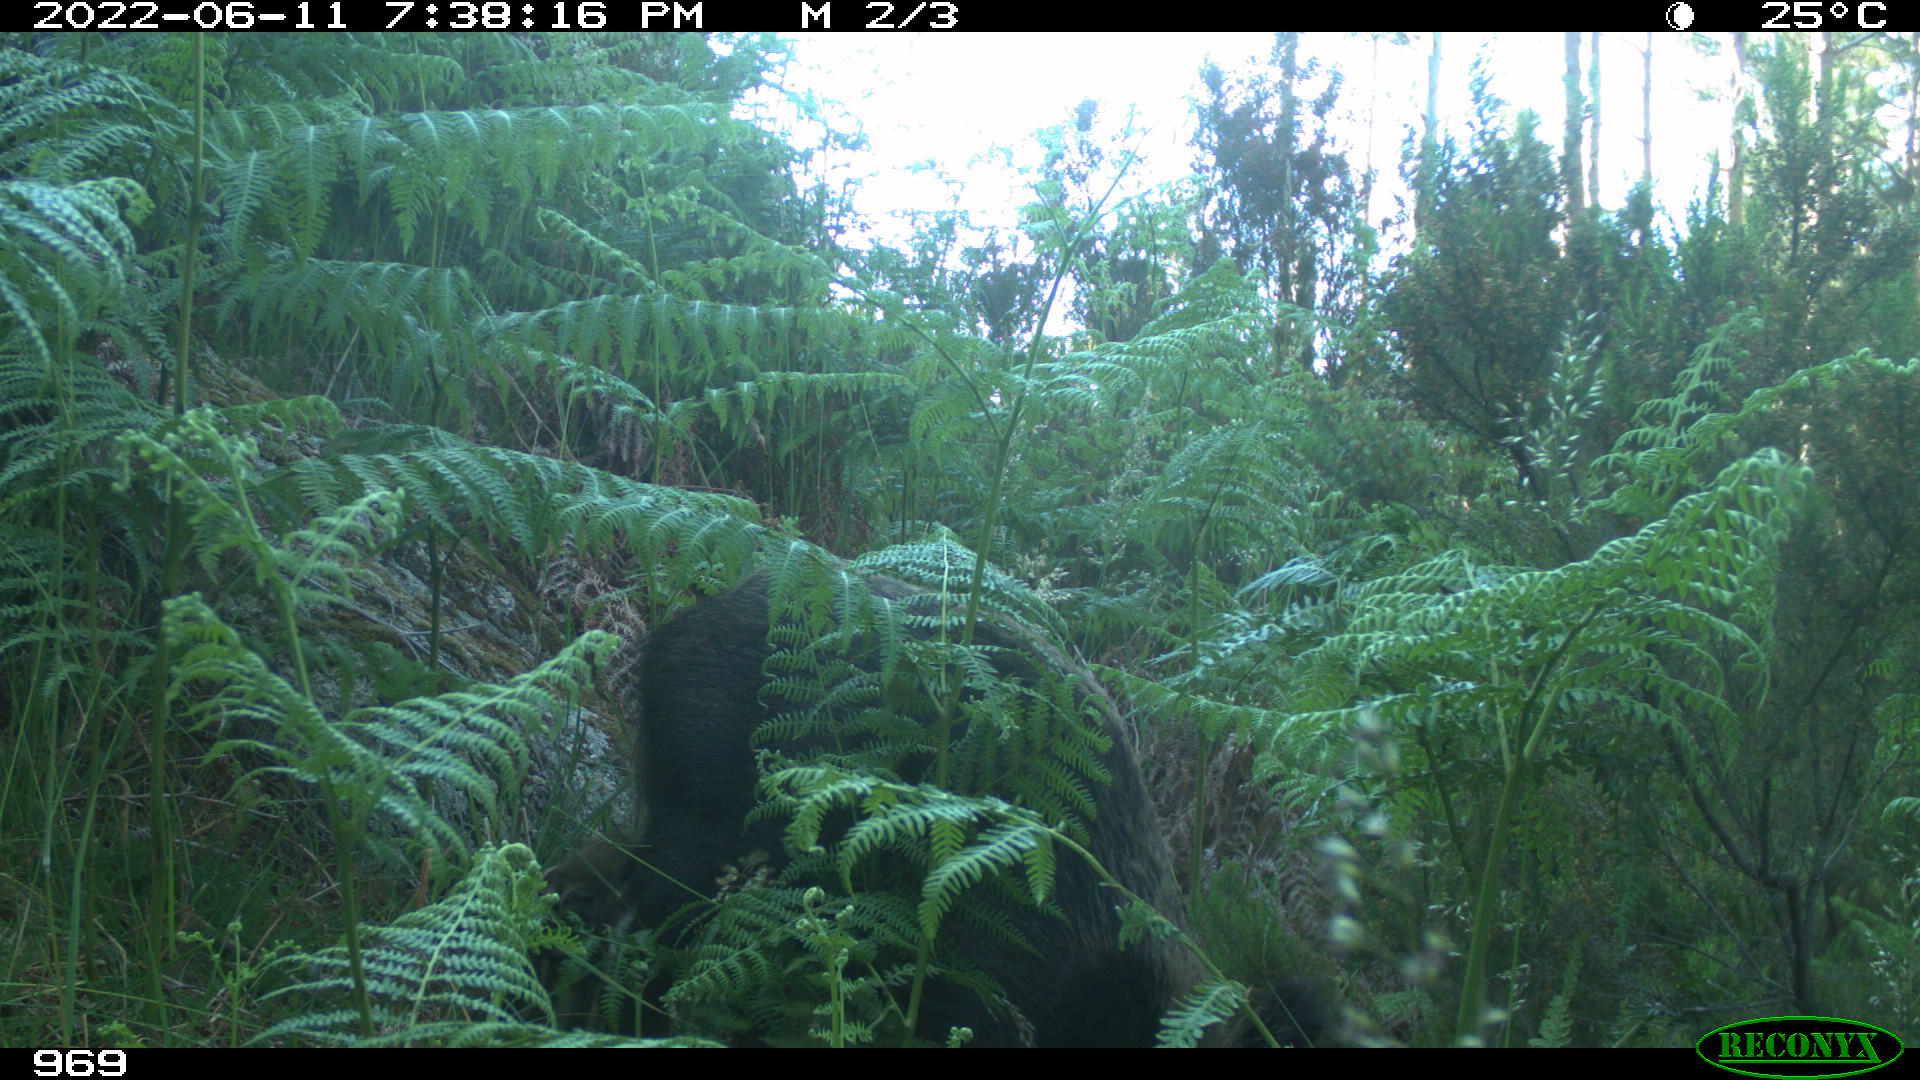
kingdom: Animalia
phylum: Chordata
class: Mammalia
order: Artiodactyla
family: Suidae
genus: Sus
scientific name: Sus scrofa
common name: Wild boar
